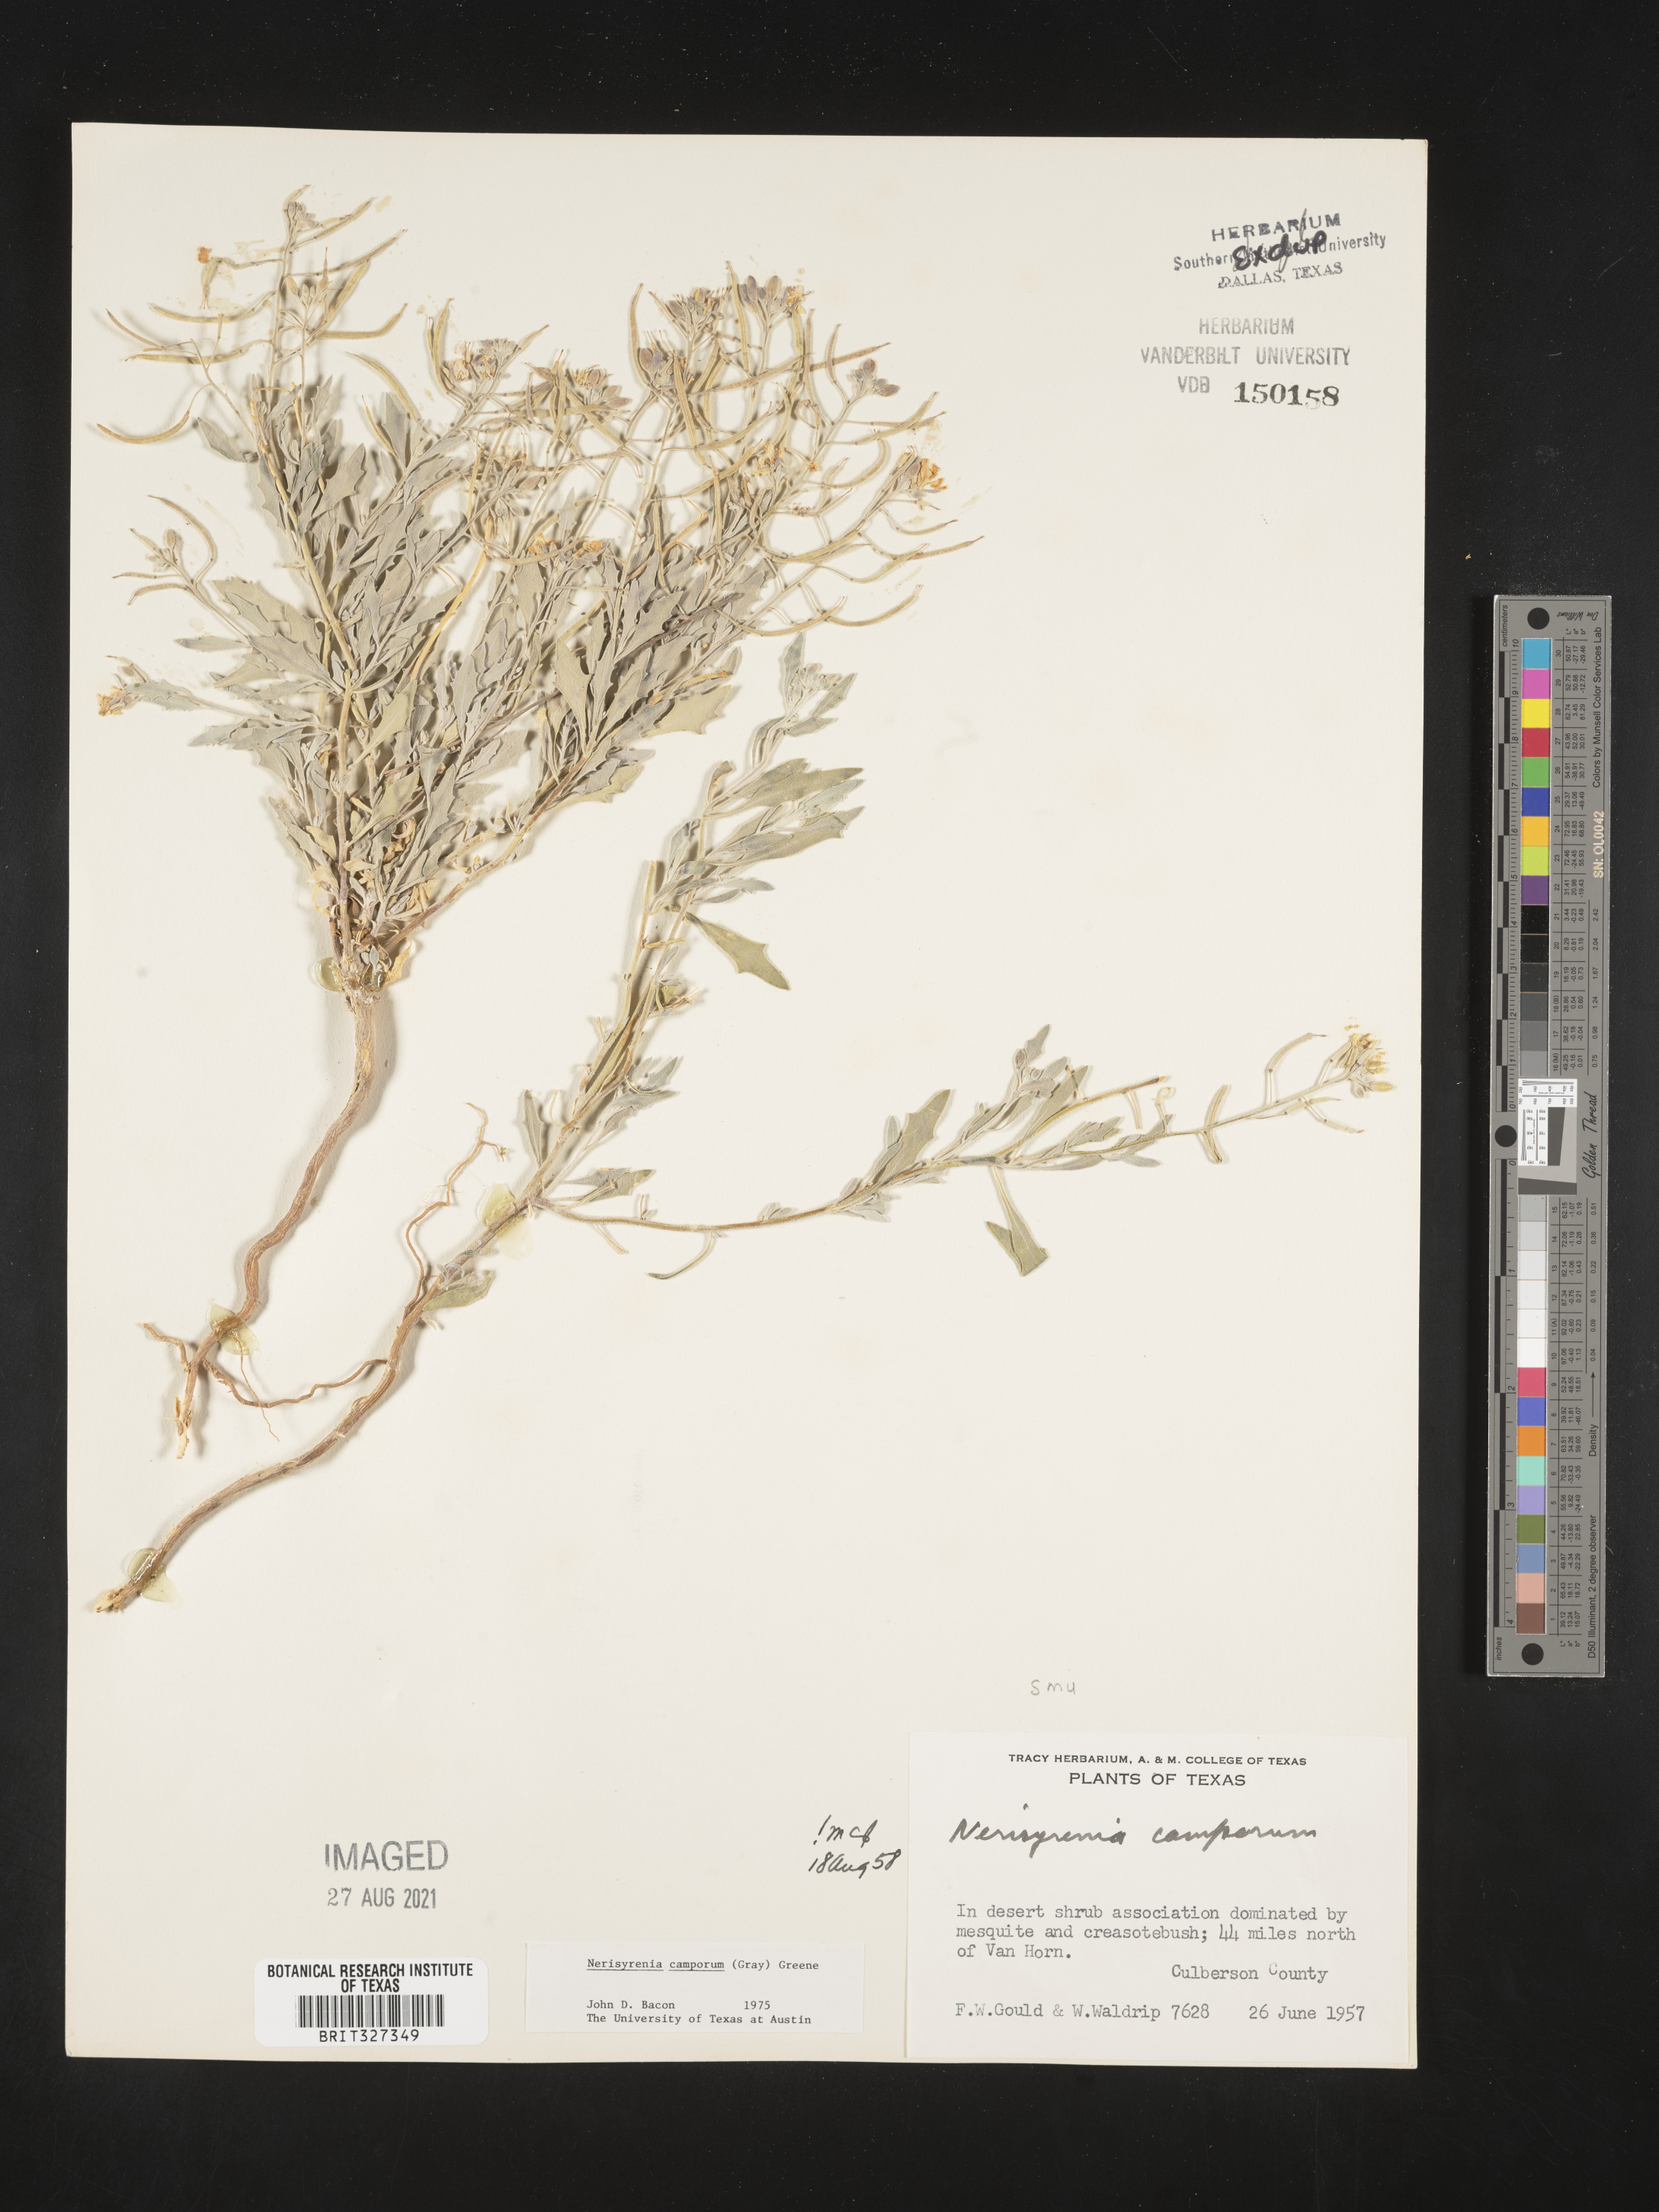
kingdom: Plantae
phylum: Tracheophyta
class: Magnoliopsida
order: Brassicales
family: Brassicaceae
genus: Nerisyrenia
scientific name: Nerisyrenia camporum
